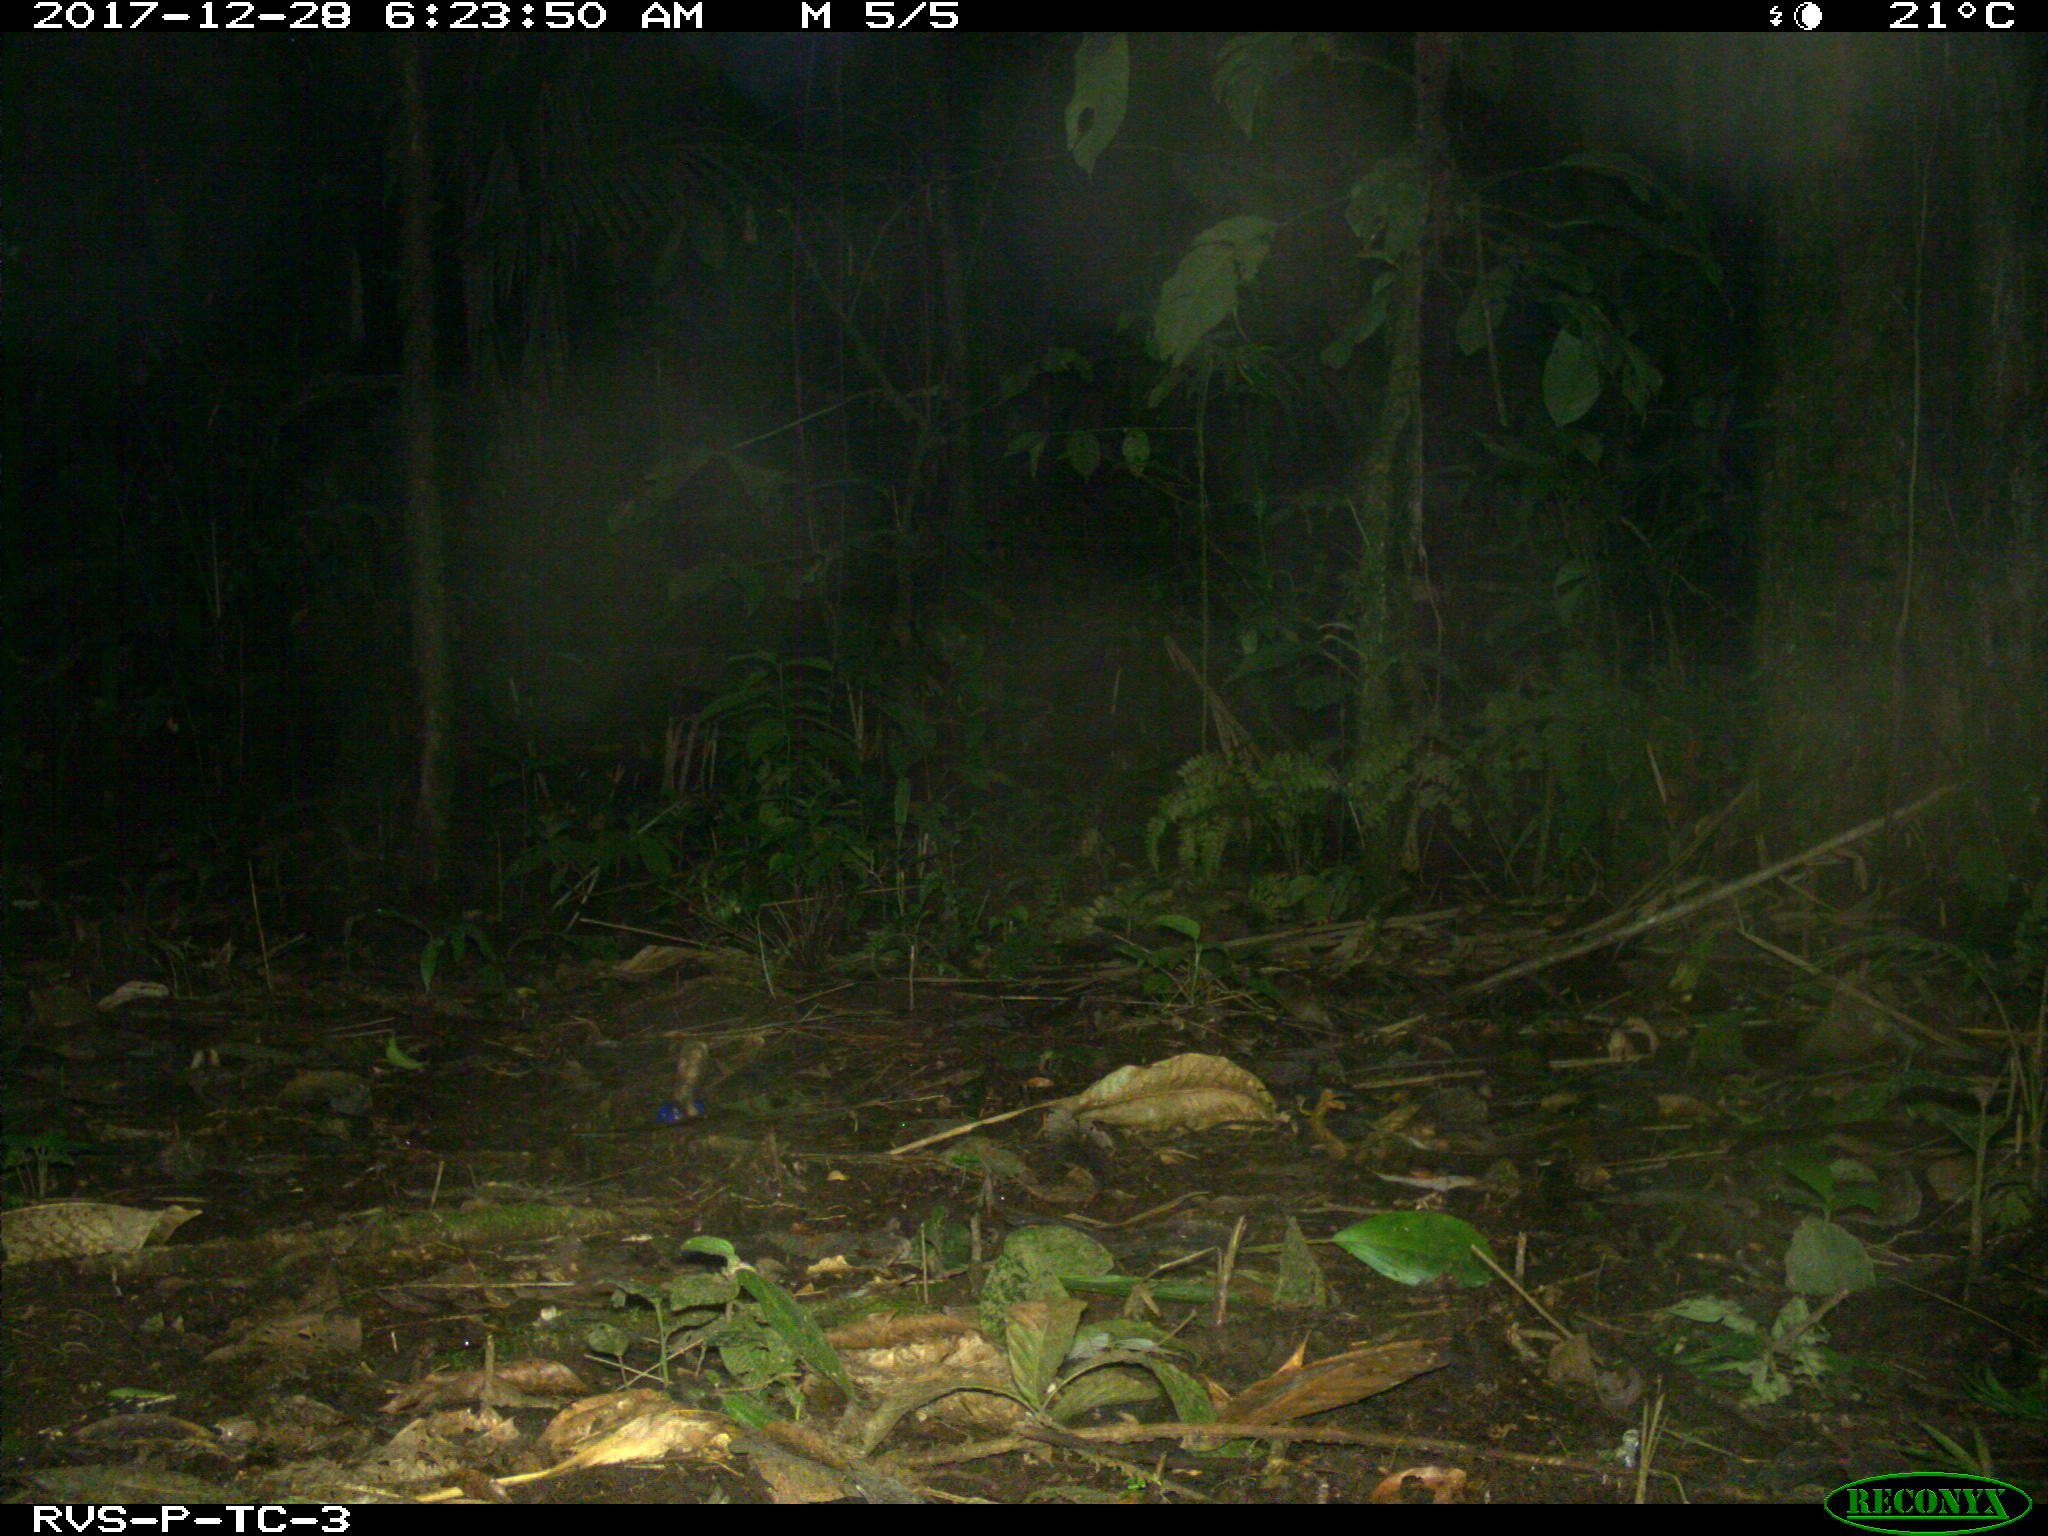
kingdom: Animalia
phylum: Chordata
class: Mammalia
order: Rodentia
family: Dasyproctidae
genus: Dasyprocta
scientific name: Dasyprocta punctata
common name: Central american agouti
